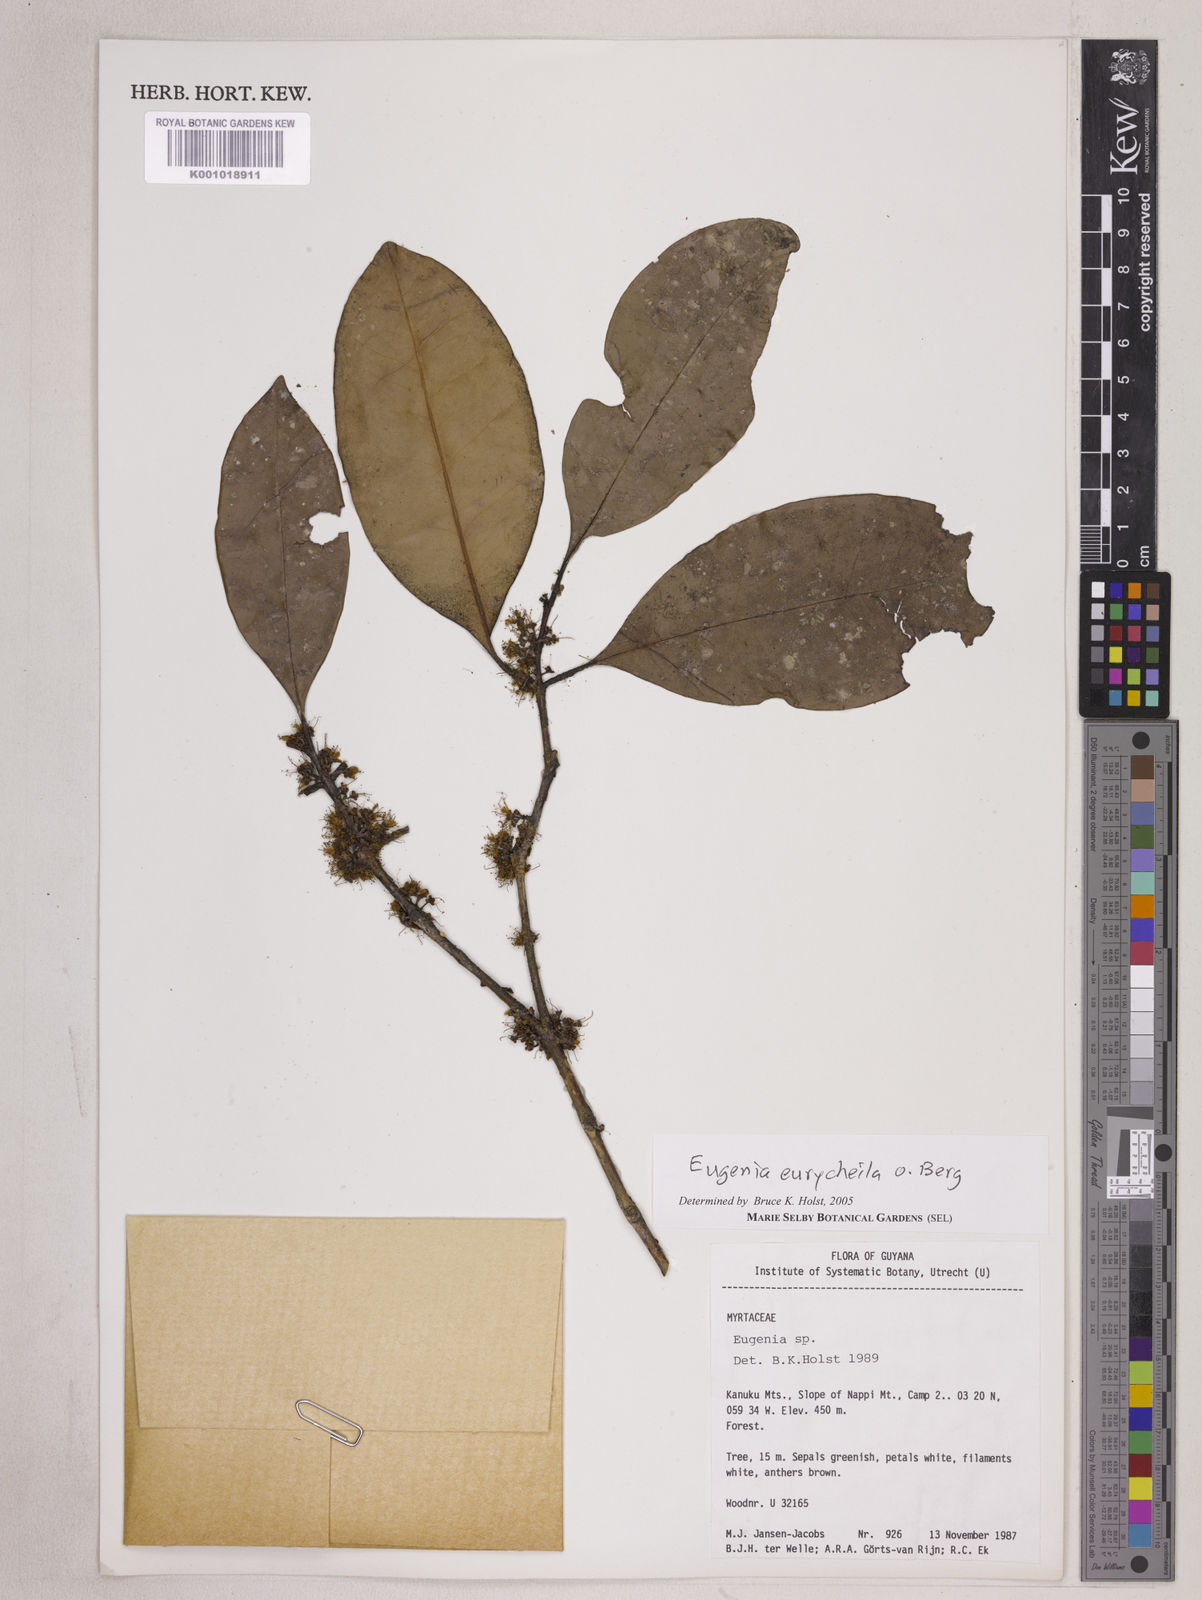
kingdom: Plantae
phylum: Tracheophyta
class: Magnoliopsida
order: Myrtales
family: Myrtaceae
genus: Eugenia
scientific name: Eugenia eurycheila
